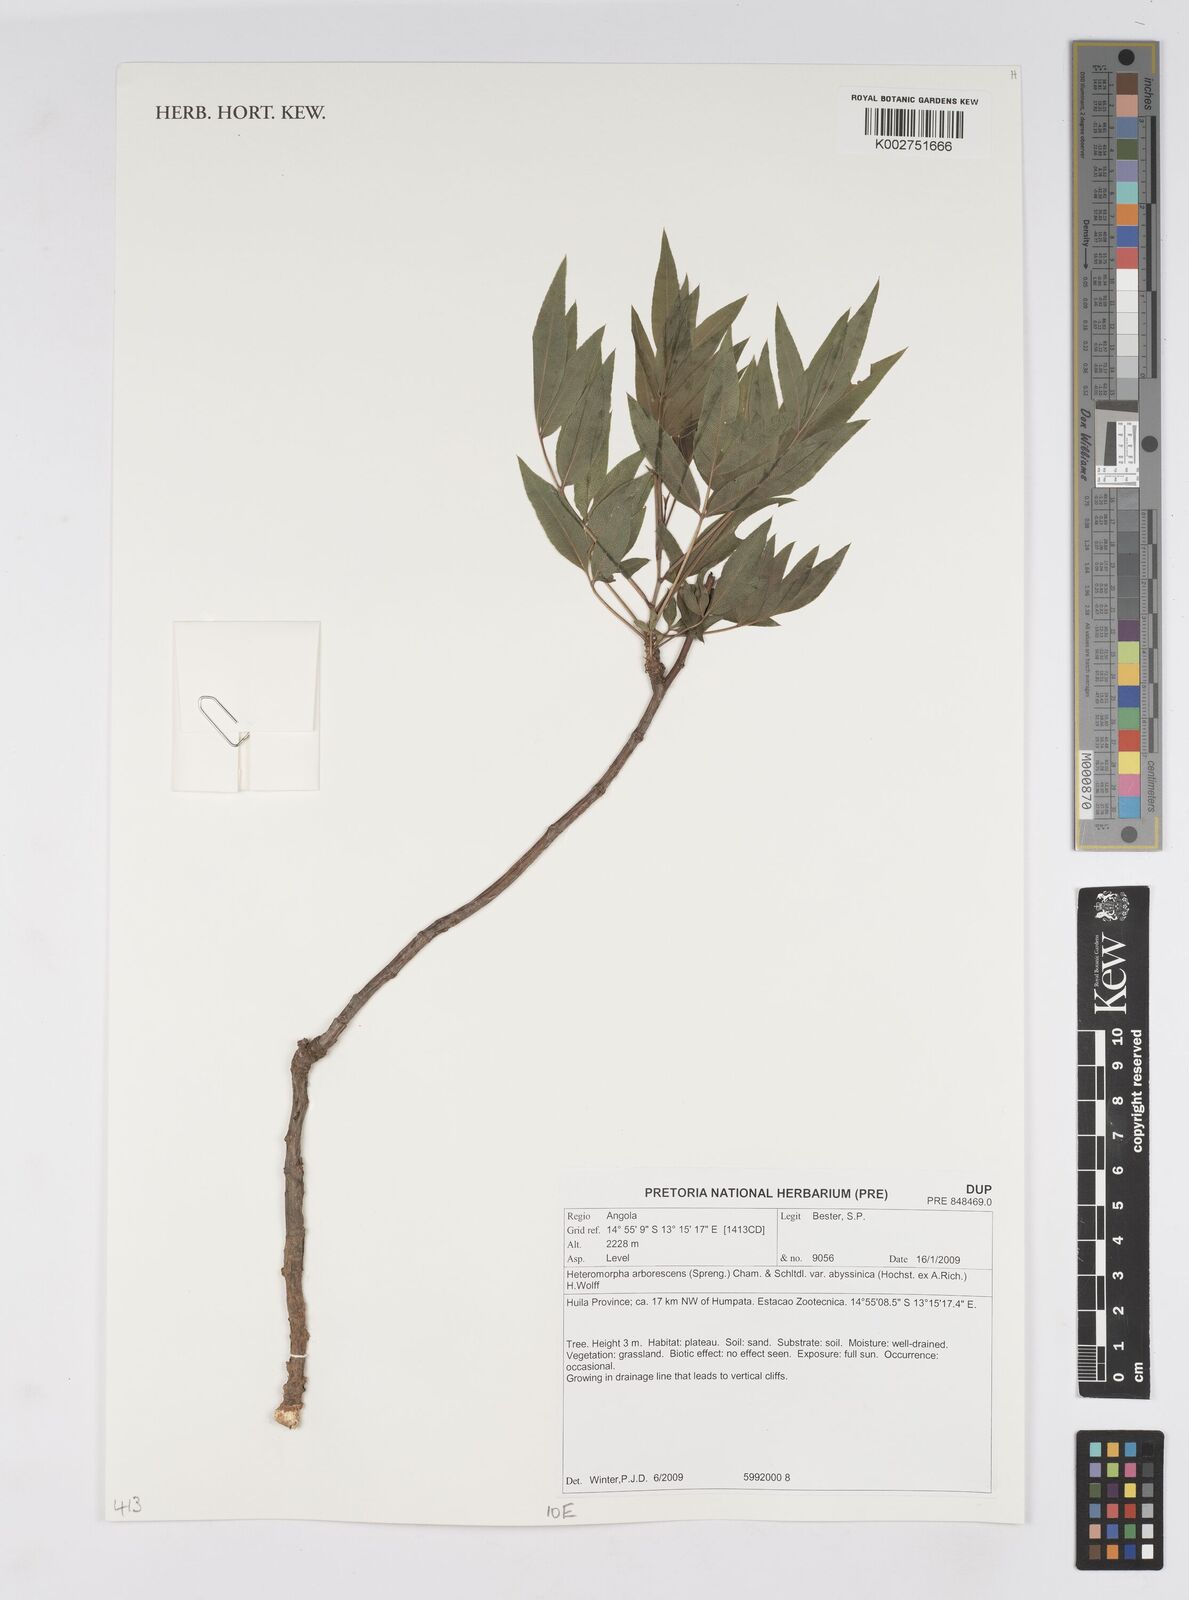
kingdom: Plantae
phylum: Tracheophyta
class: Magnoliopsida
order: Apiales
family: Apiaceae
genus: Heteromorpha
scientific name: Heteromorpha arborescens
